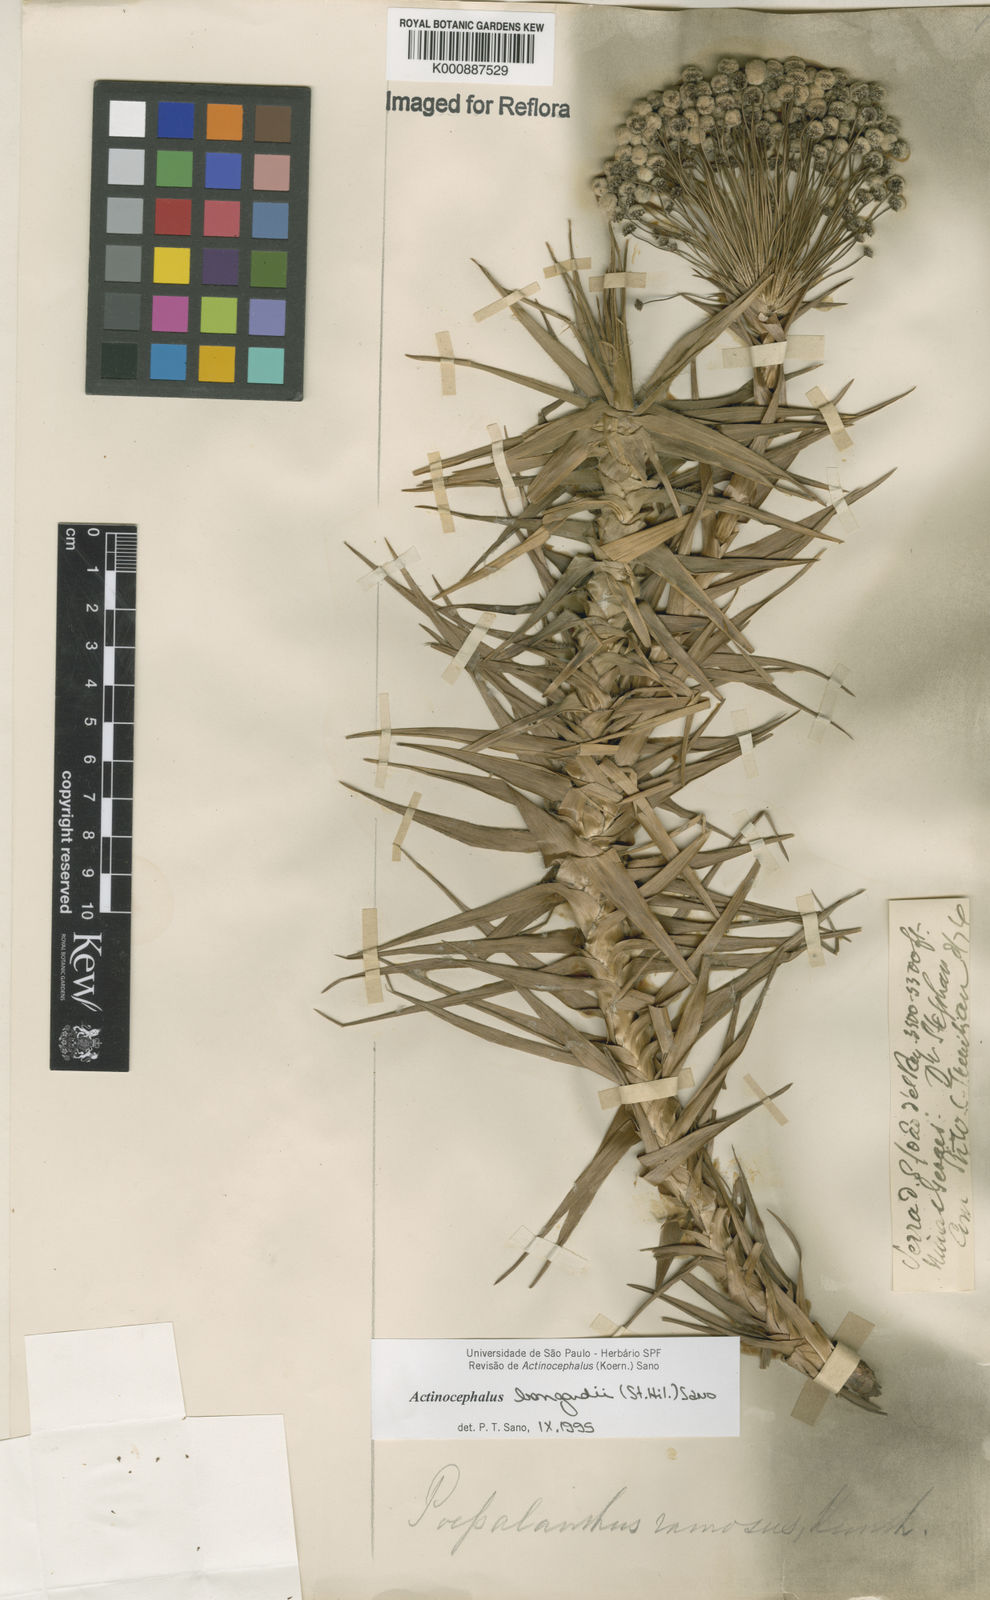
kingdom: Plantae
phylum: Tracheophyta
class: Liliopsida
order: Poales
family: Eriocaulaceae
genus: Paepalanthus
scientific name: Paepalanthus hilairei
